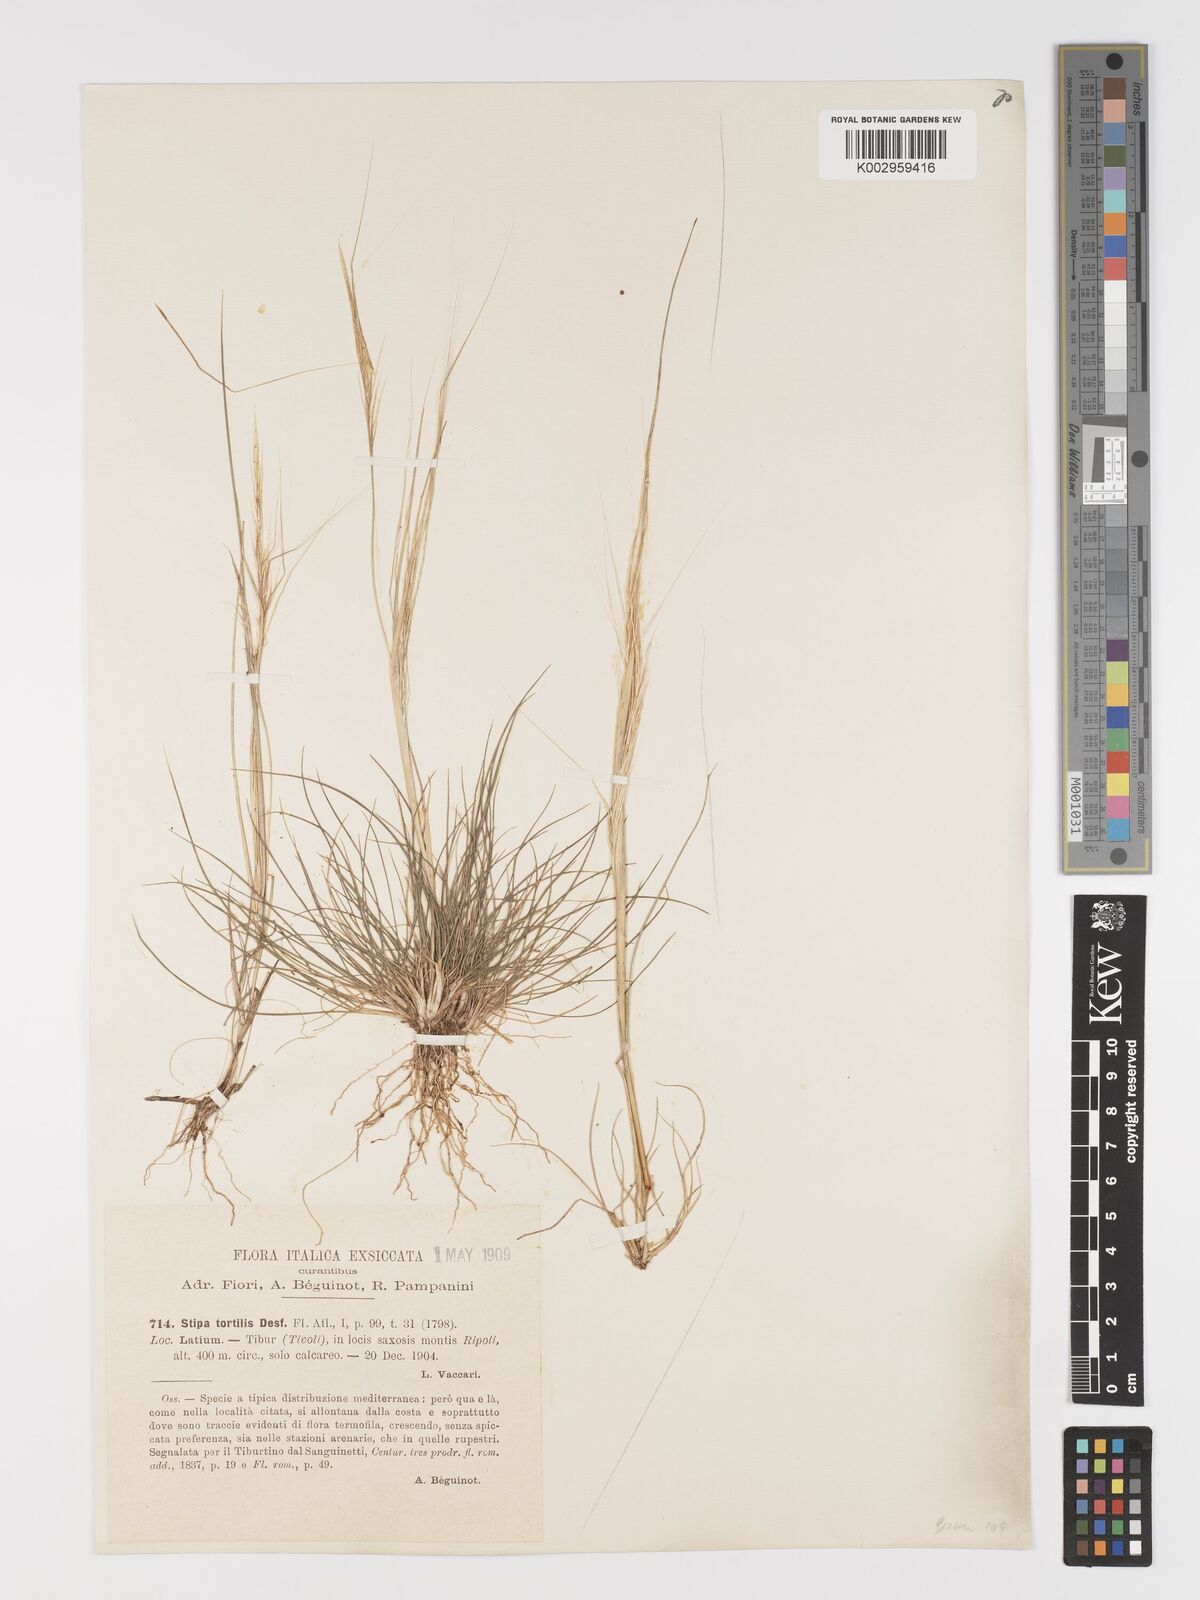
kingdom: Plantae
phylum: Tracheophyta
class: Liliopsida
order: Poales
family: Poaceae
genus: Stipa
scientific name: Stipa
